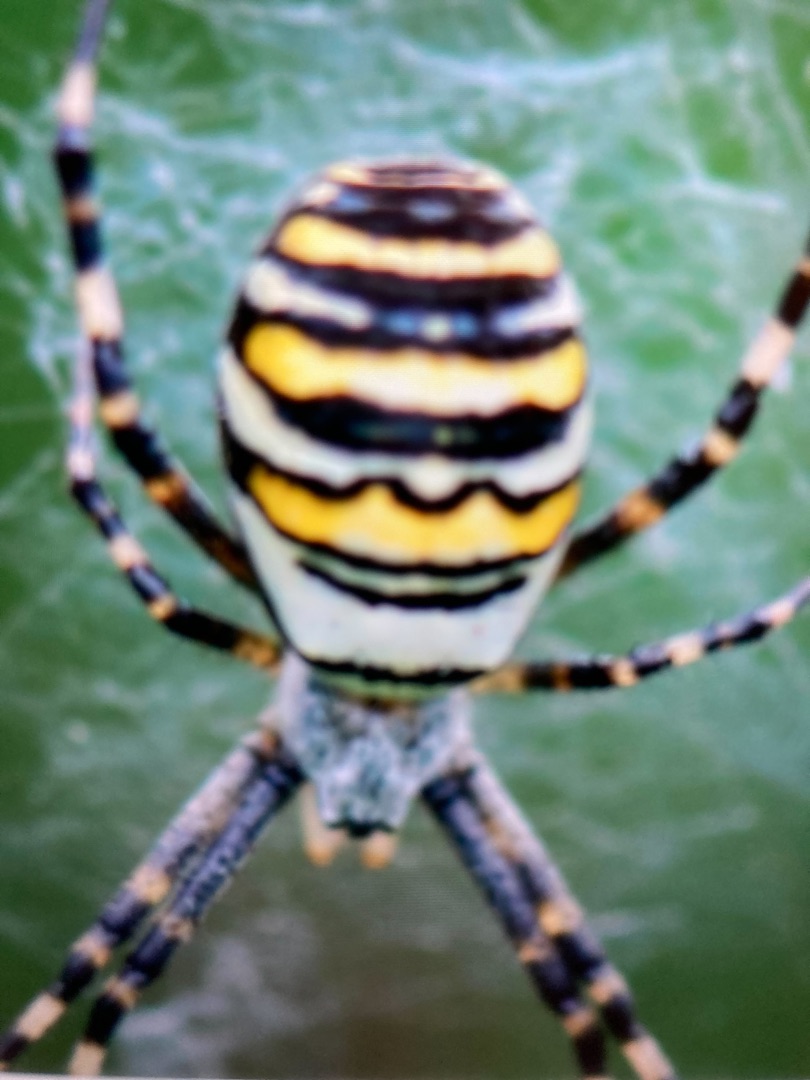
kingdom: Animalia
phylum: Arthropoda
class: Arachnida
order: Araneae
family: Araneidae
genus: Argiope
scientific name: Argiope bruennichi
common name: Hvepseedderkop
